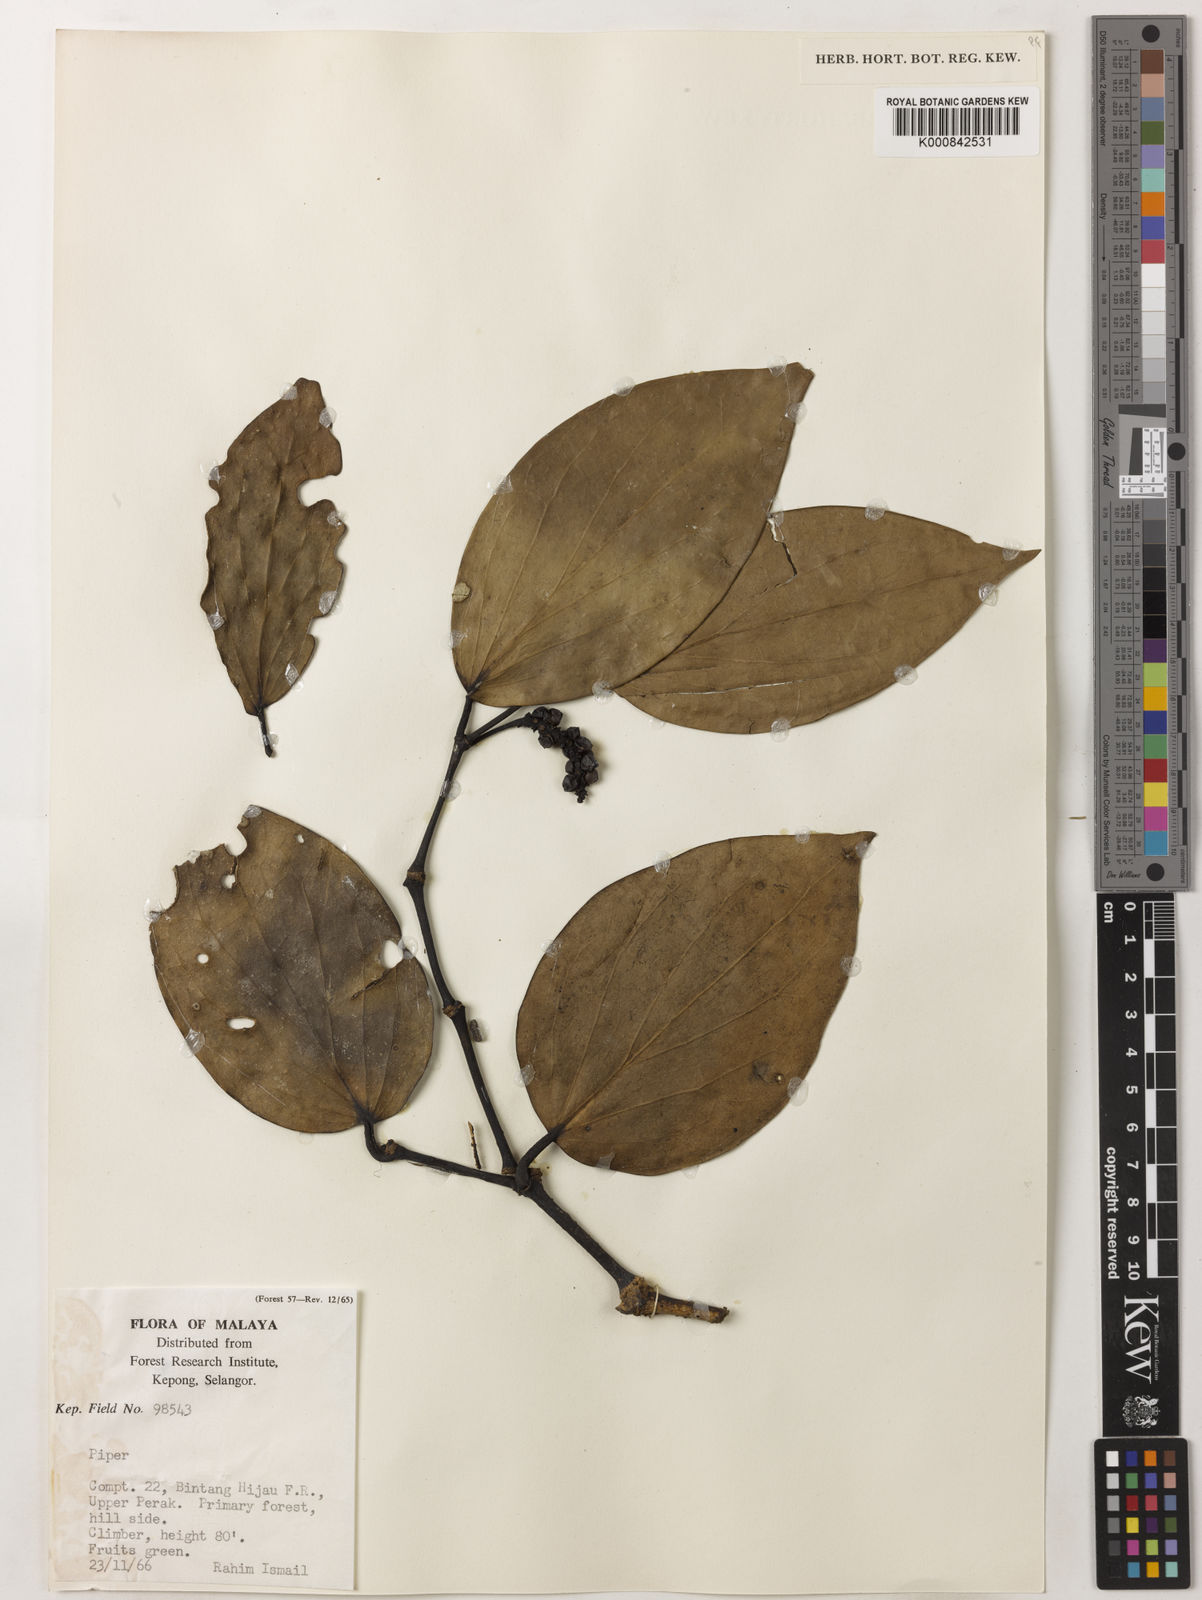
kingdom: Plantae
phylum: Tracheophyta
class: Magnoliopsida
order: Piperales
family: Piperaceae
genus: Piper
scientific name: Piper
